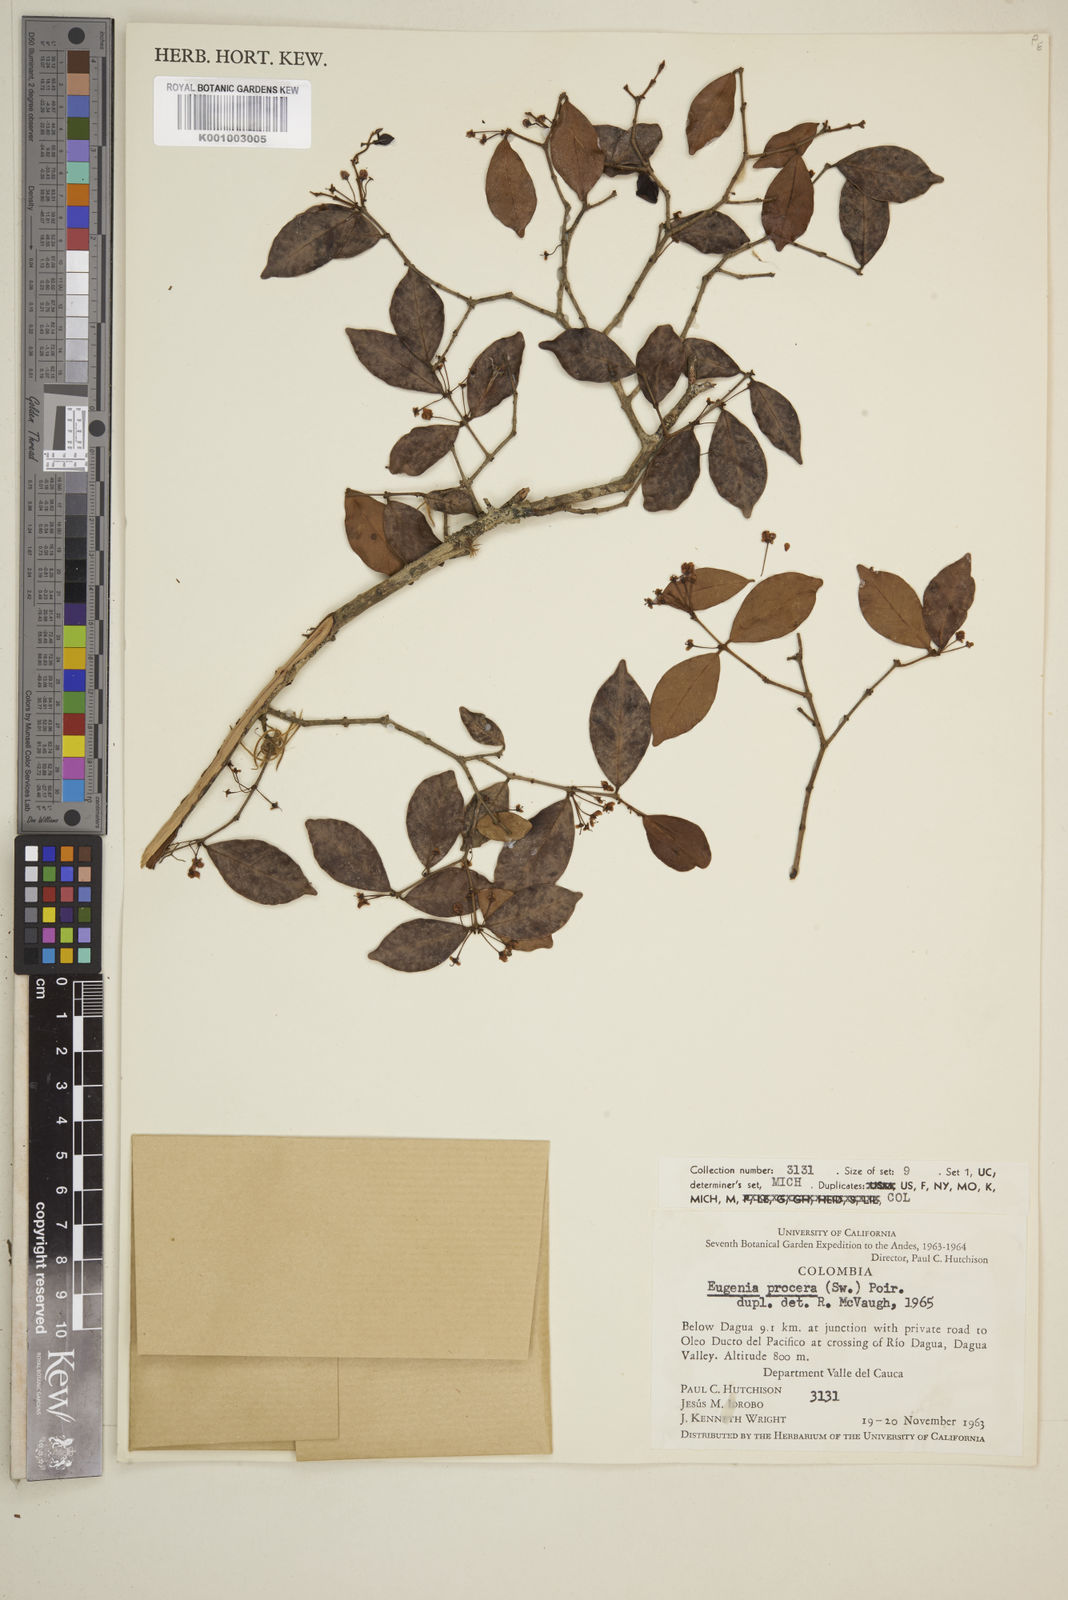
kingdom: Plantae
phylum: Tracheophyta
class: Magnoliopsida
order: Myrtales
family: Myrtaceae
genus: Eugenia
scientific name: Eugenia procera
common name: Bastard blackberry
